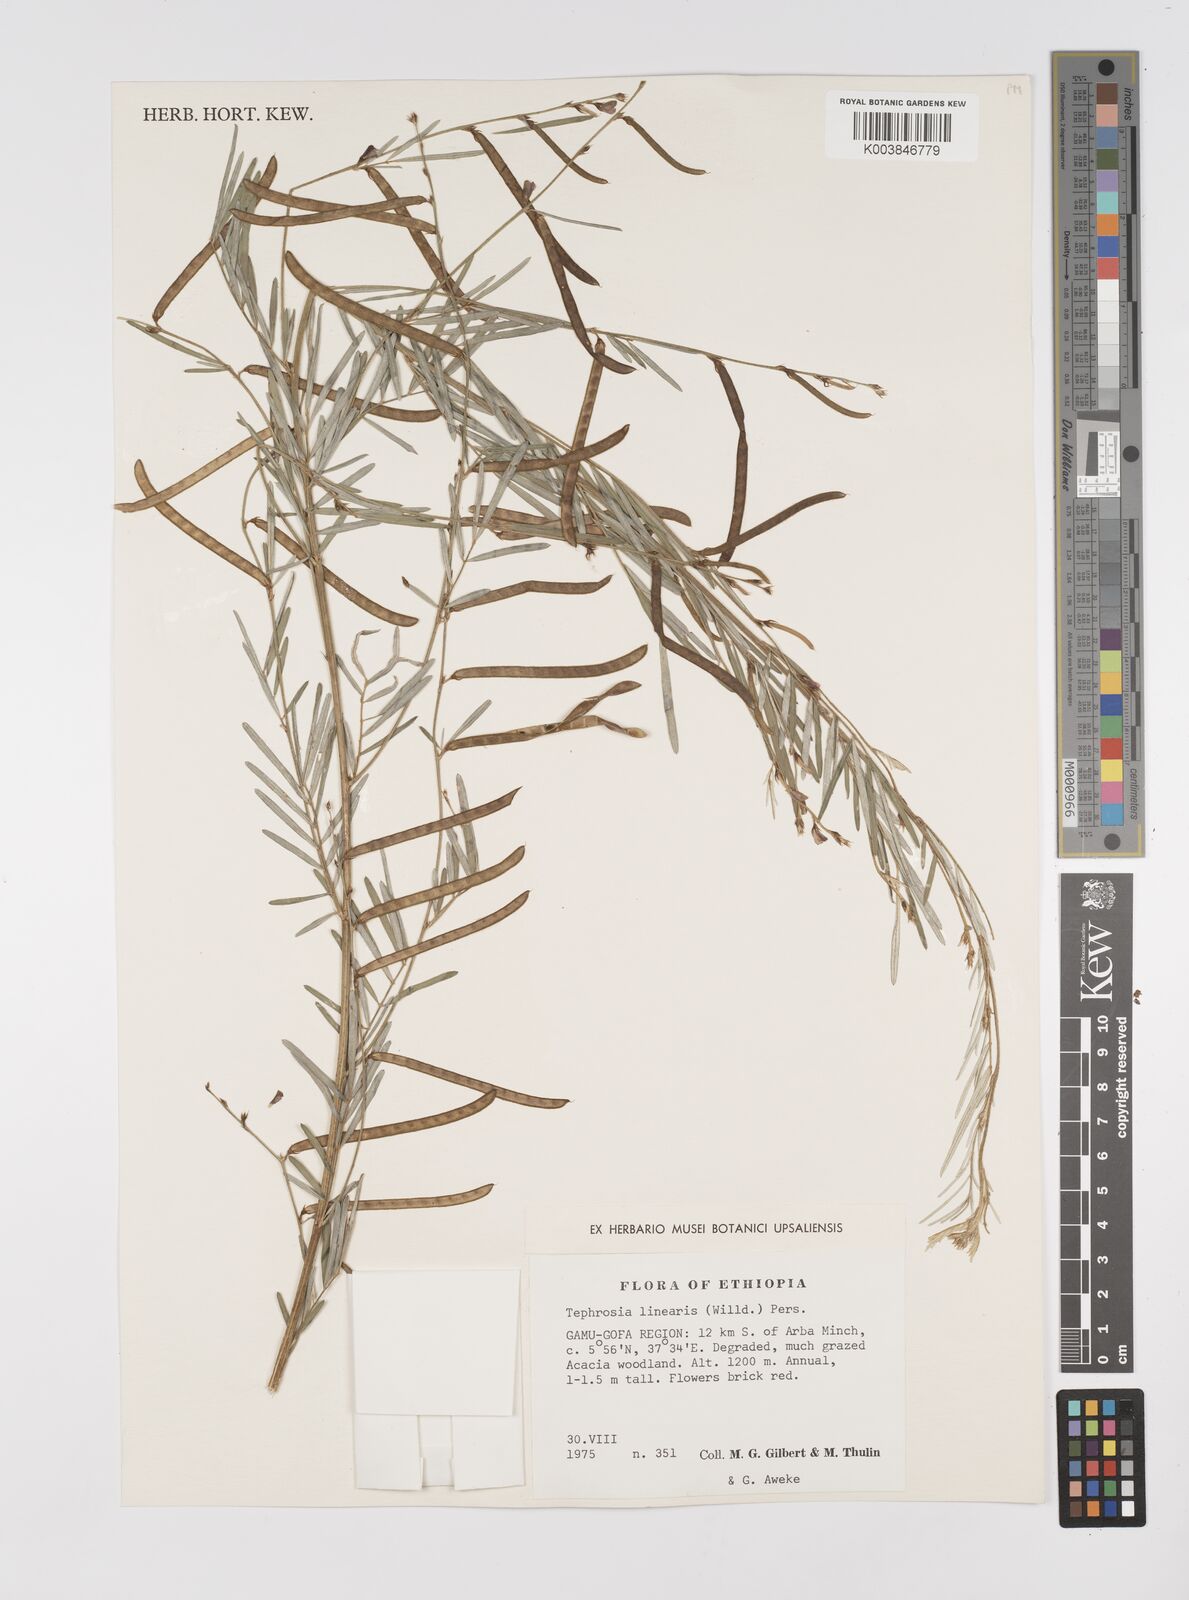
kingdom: Plantae
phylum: Tracheophyta
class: Magnoliopsida
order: Fabales
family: Fabaceae
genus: Tephrosia
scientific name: Tephrosia linearis
